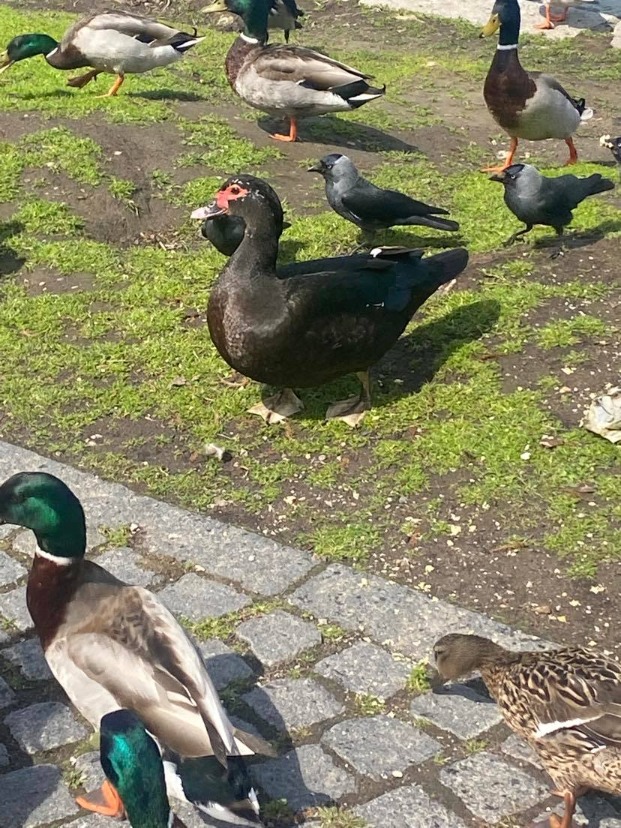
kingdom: Animalia
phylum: Chordata
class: Aves
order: Anseriformes
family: Anatidae
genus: Cairina
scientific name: Cairina moschata
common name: Moskusand
